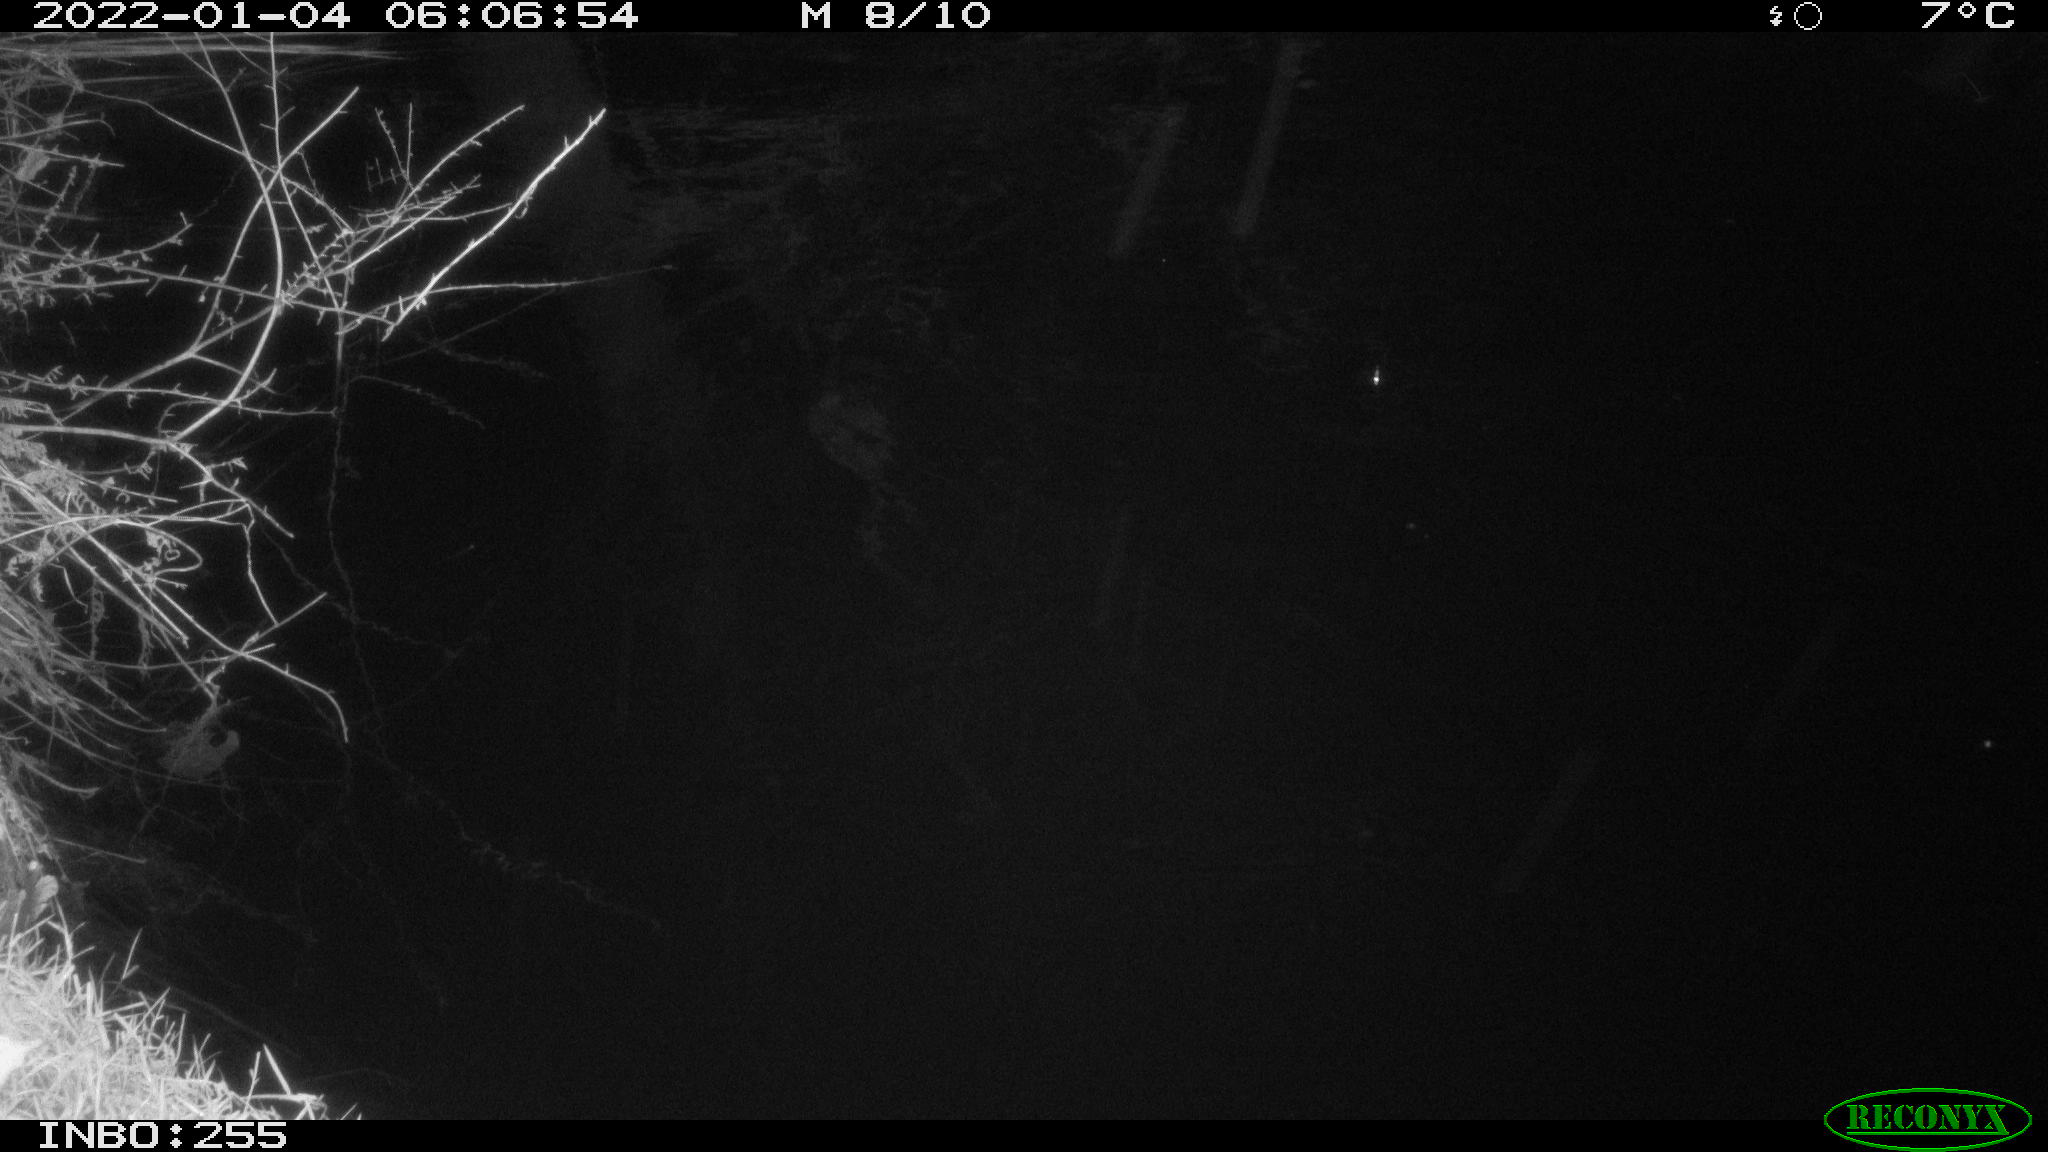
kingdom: Animalia
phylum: Chordata
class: Aves
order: Anseriformes
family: Anatidae
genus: Anas
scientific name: Anas
